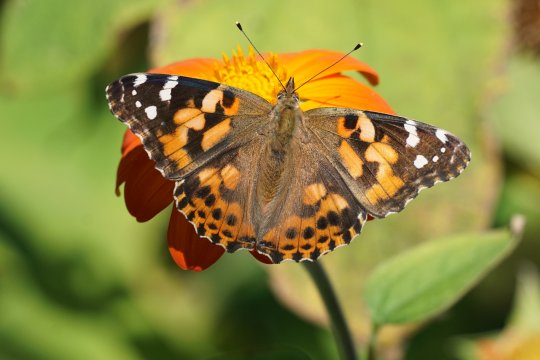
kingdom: Animalia
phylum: Arthropoda
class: Insecta
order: Lepidoptera
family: Nymphalidae
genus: Vanessa
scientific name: Vanessa cardui
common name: Painted Lady
